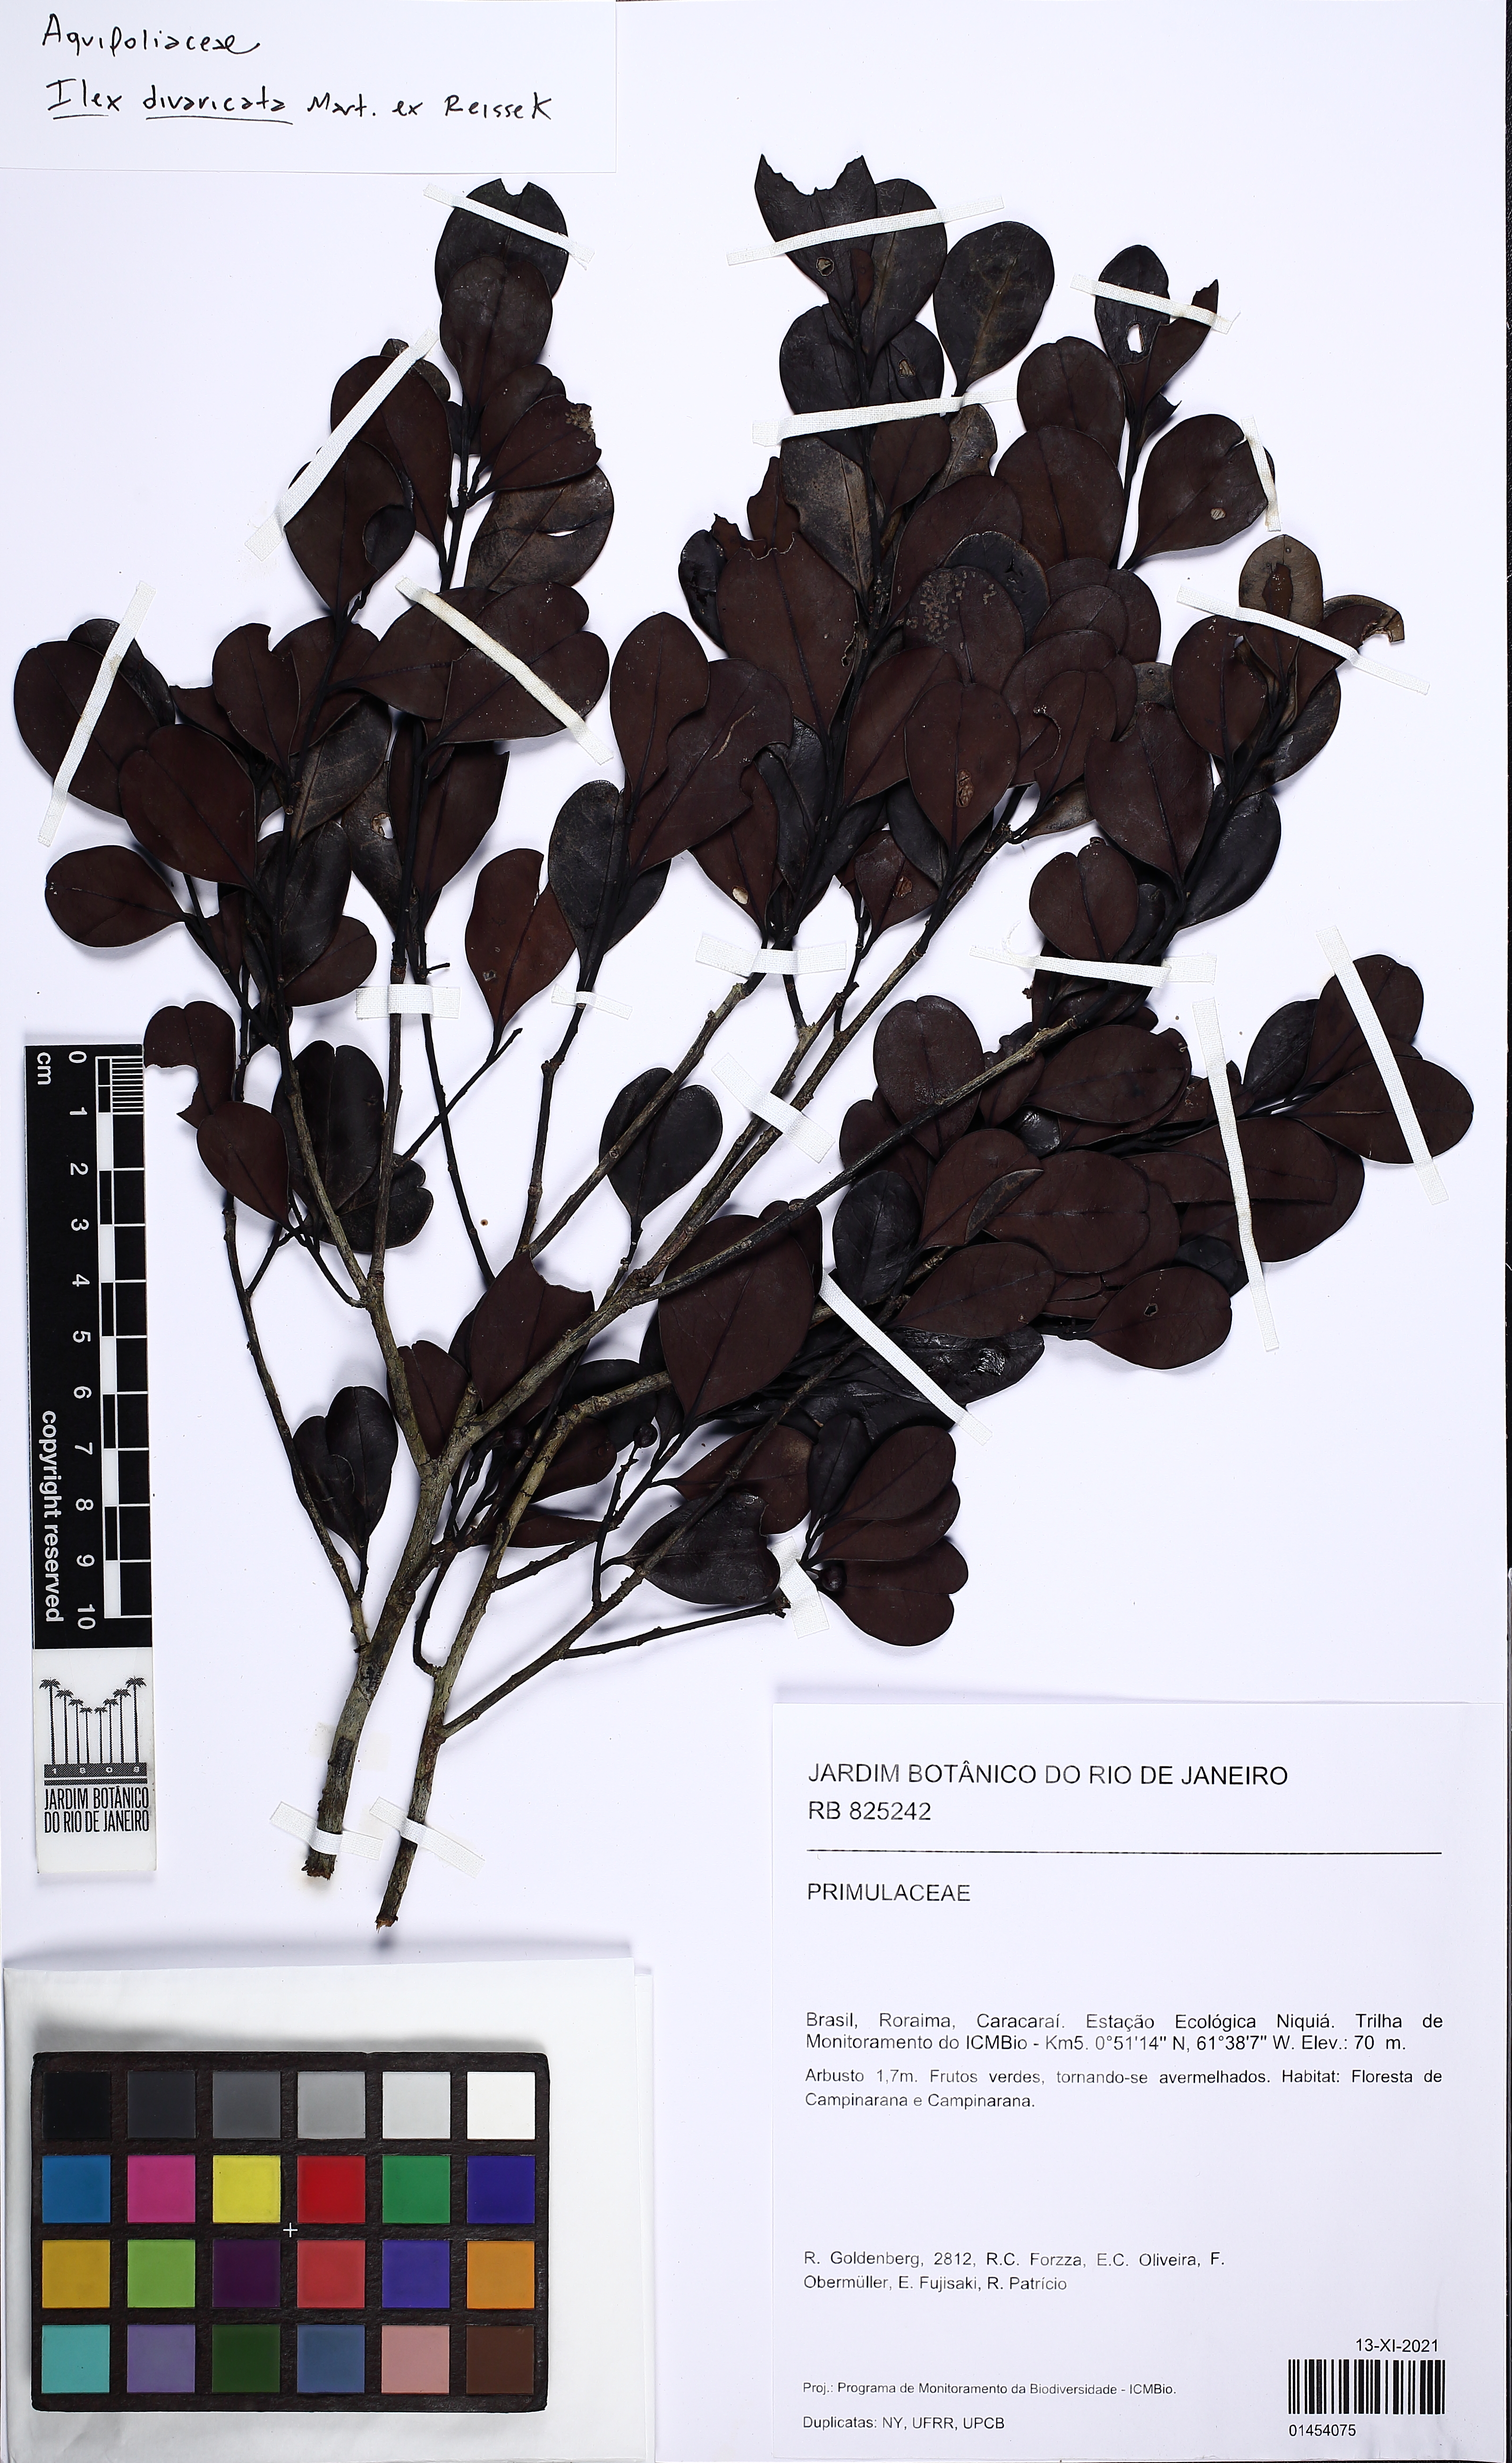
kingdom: Plantae
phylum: Tracheophyta
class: Magnoliopsida
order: Aquifoliales
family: Aquifoliaceae
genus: Ilex
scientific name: Ilex divaricata
